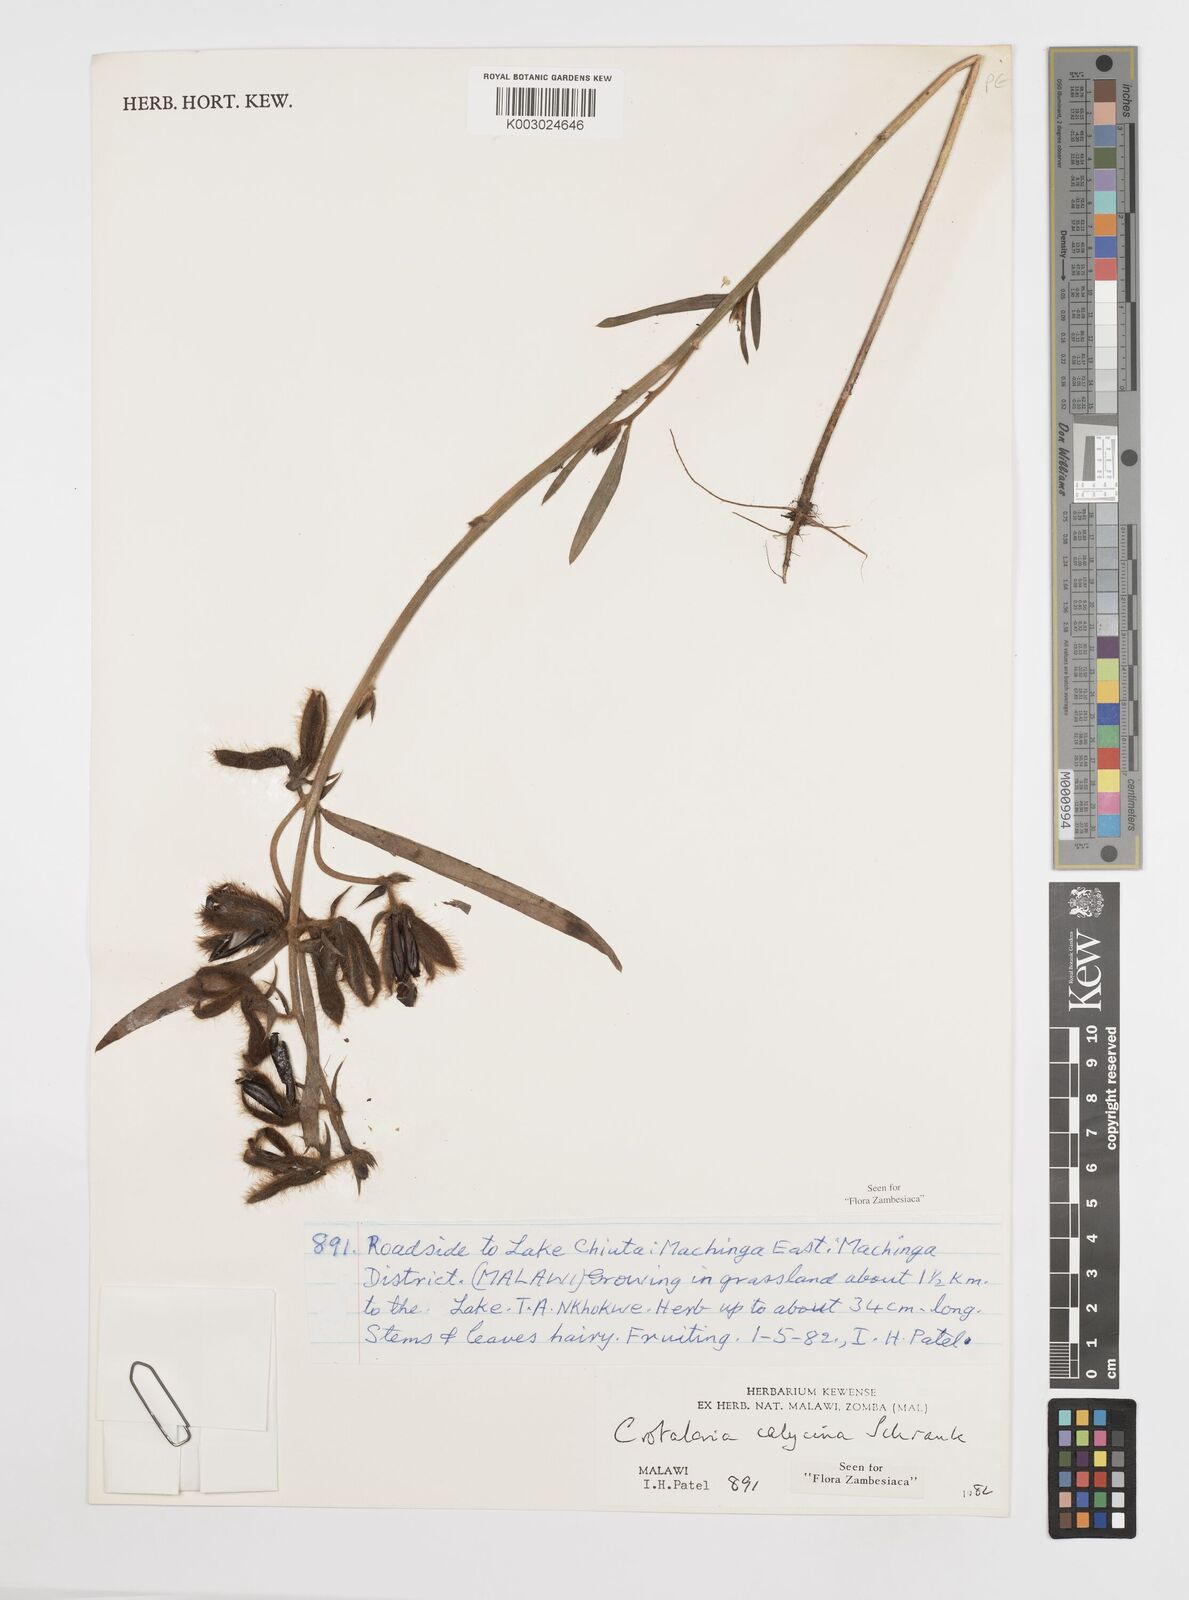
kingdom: Plantae
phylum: Tracheophyta
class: Magnoliopsida
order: Fabales
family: Fabaceae
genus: Crotalaria
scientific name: Crotalaria calycina
